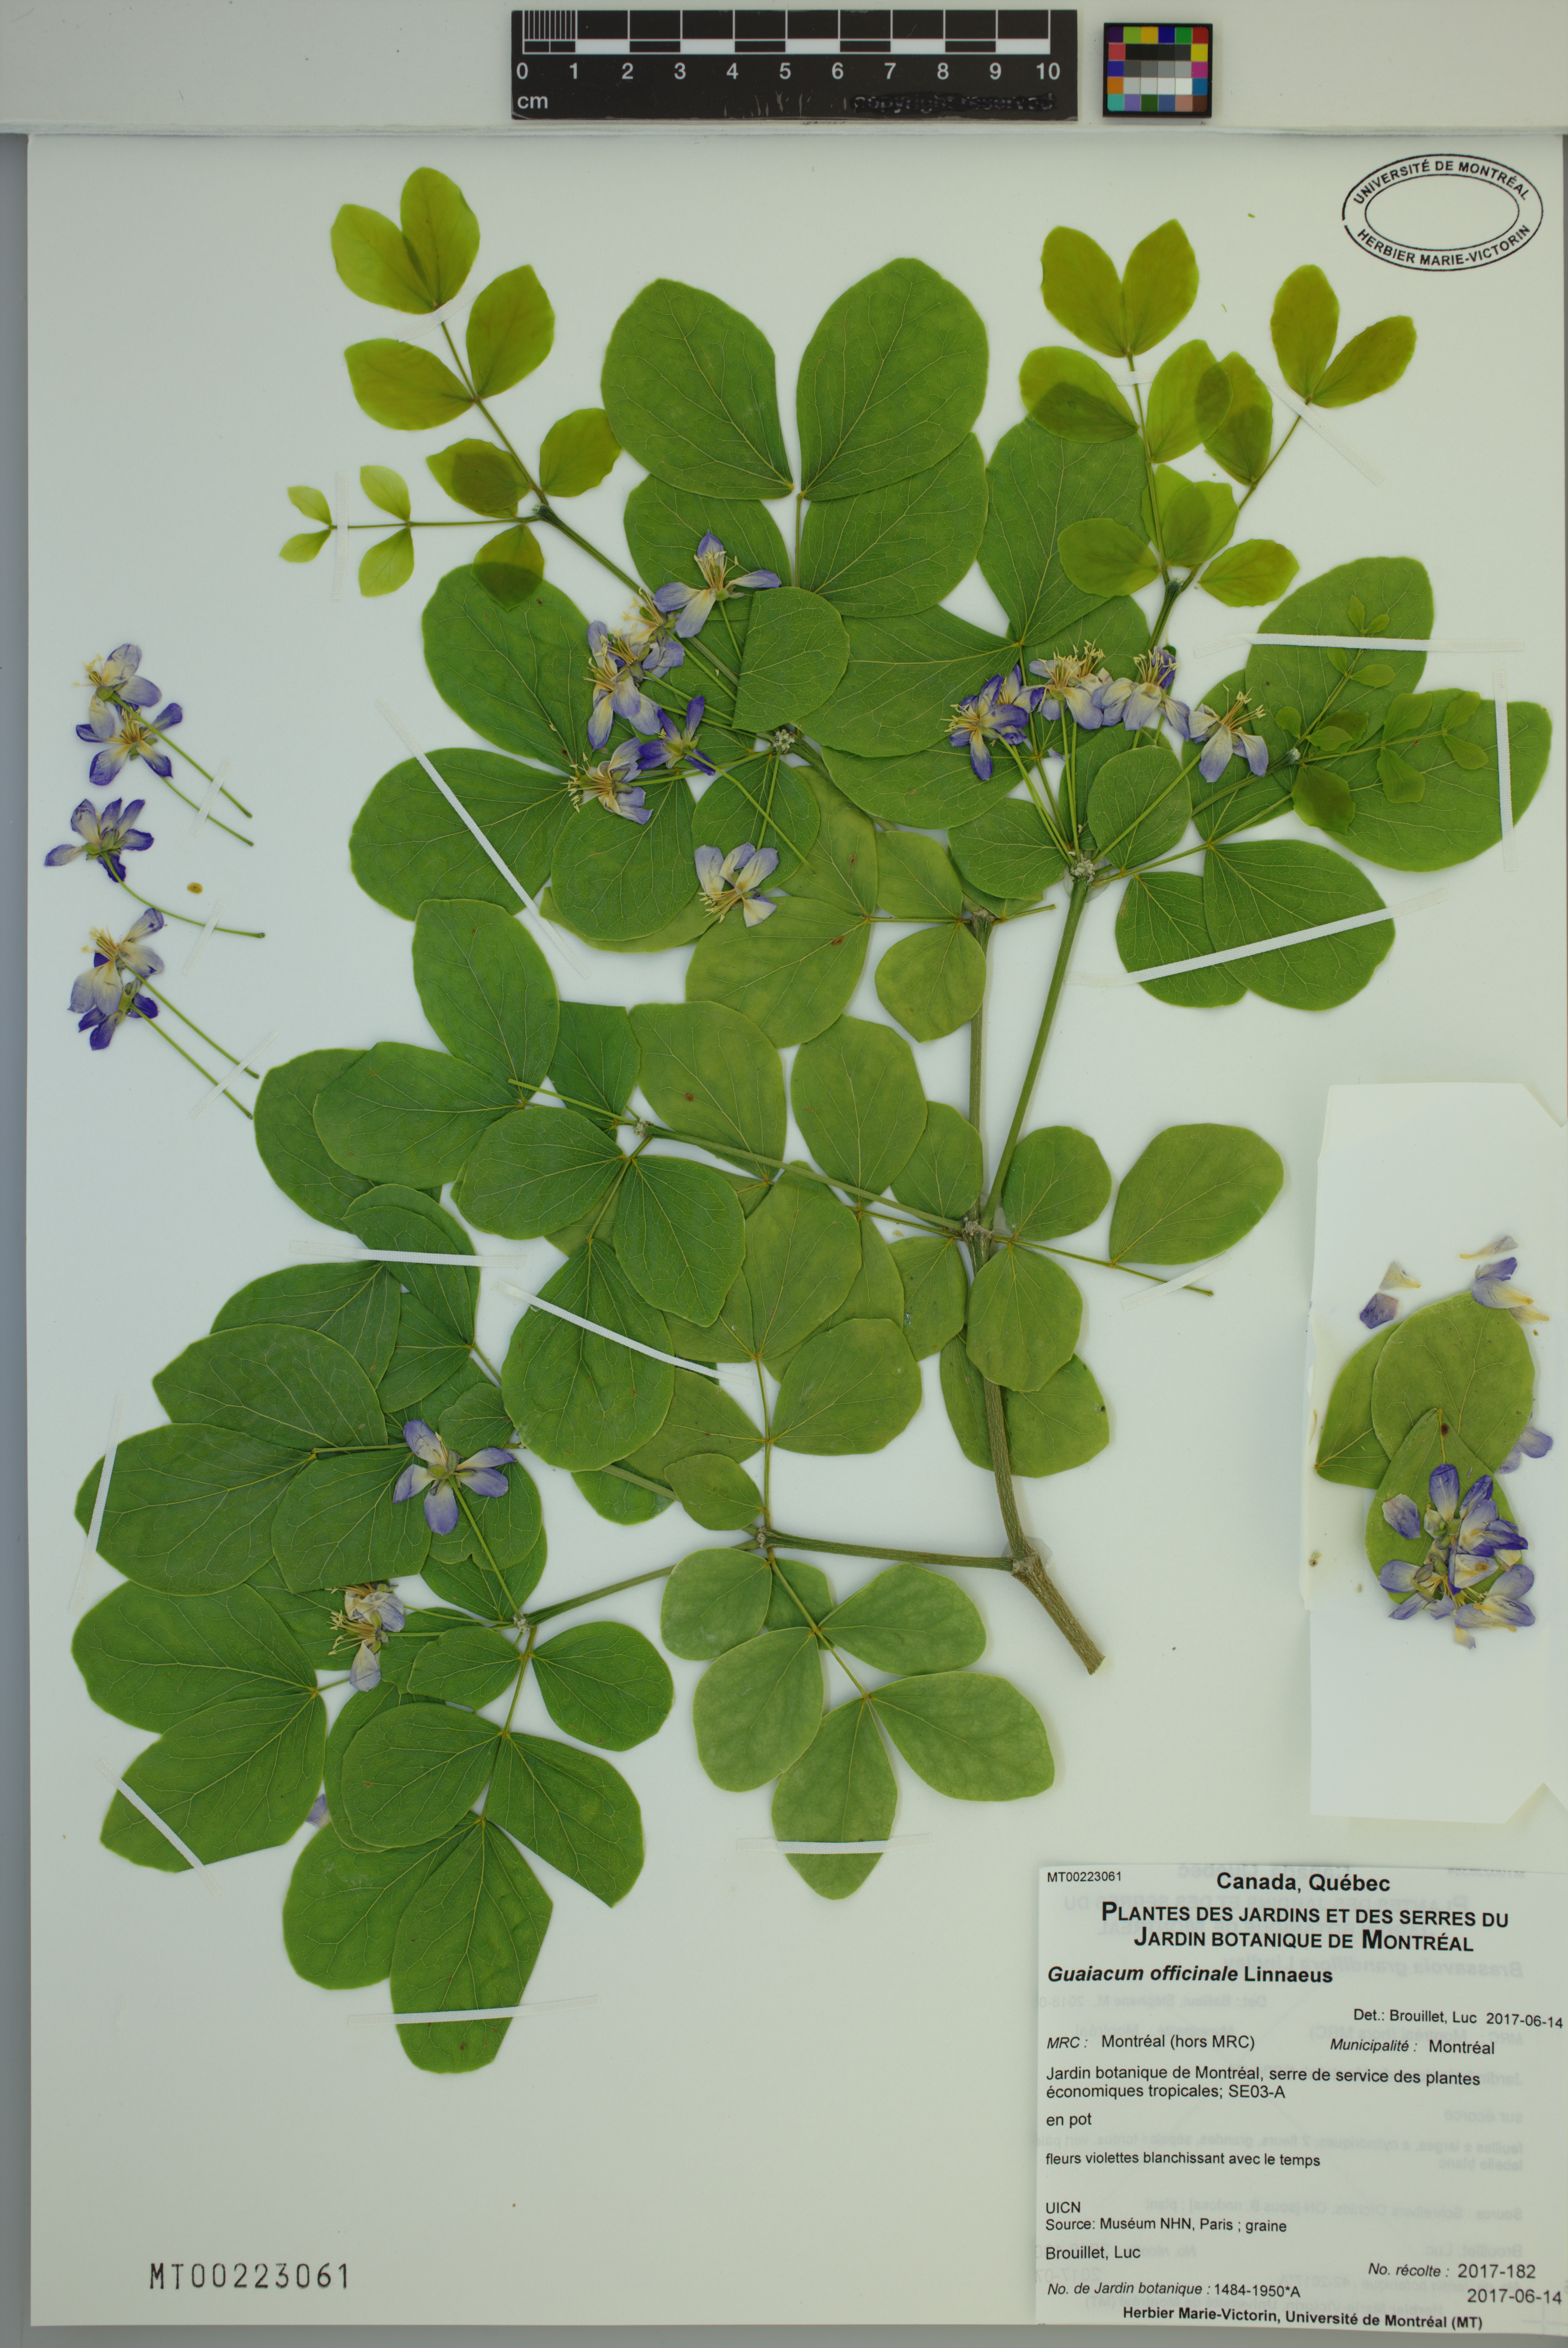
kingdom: Plantae
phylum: Tracheophyta
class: Magnoliopsida
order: Zygophyllales
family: Zygophyllaceae
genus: Guaiacum
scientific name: Guaiacum officinale
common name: Lignum vitae
